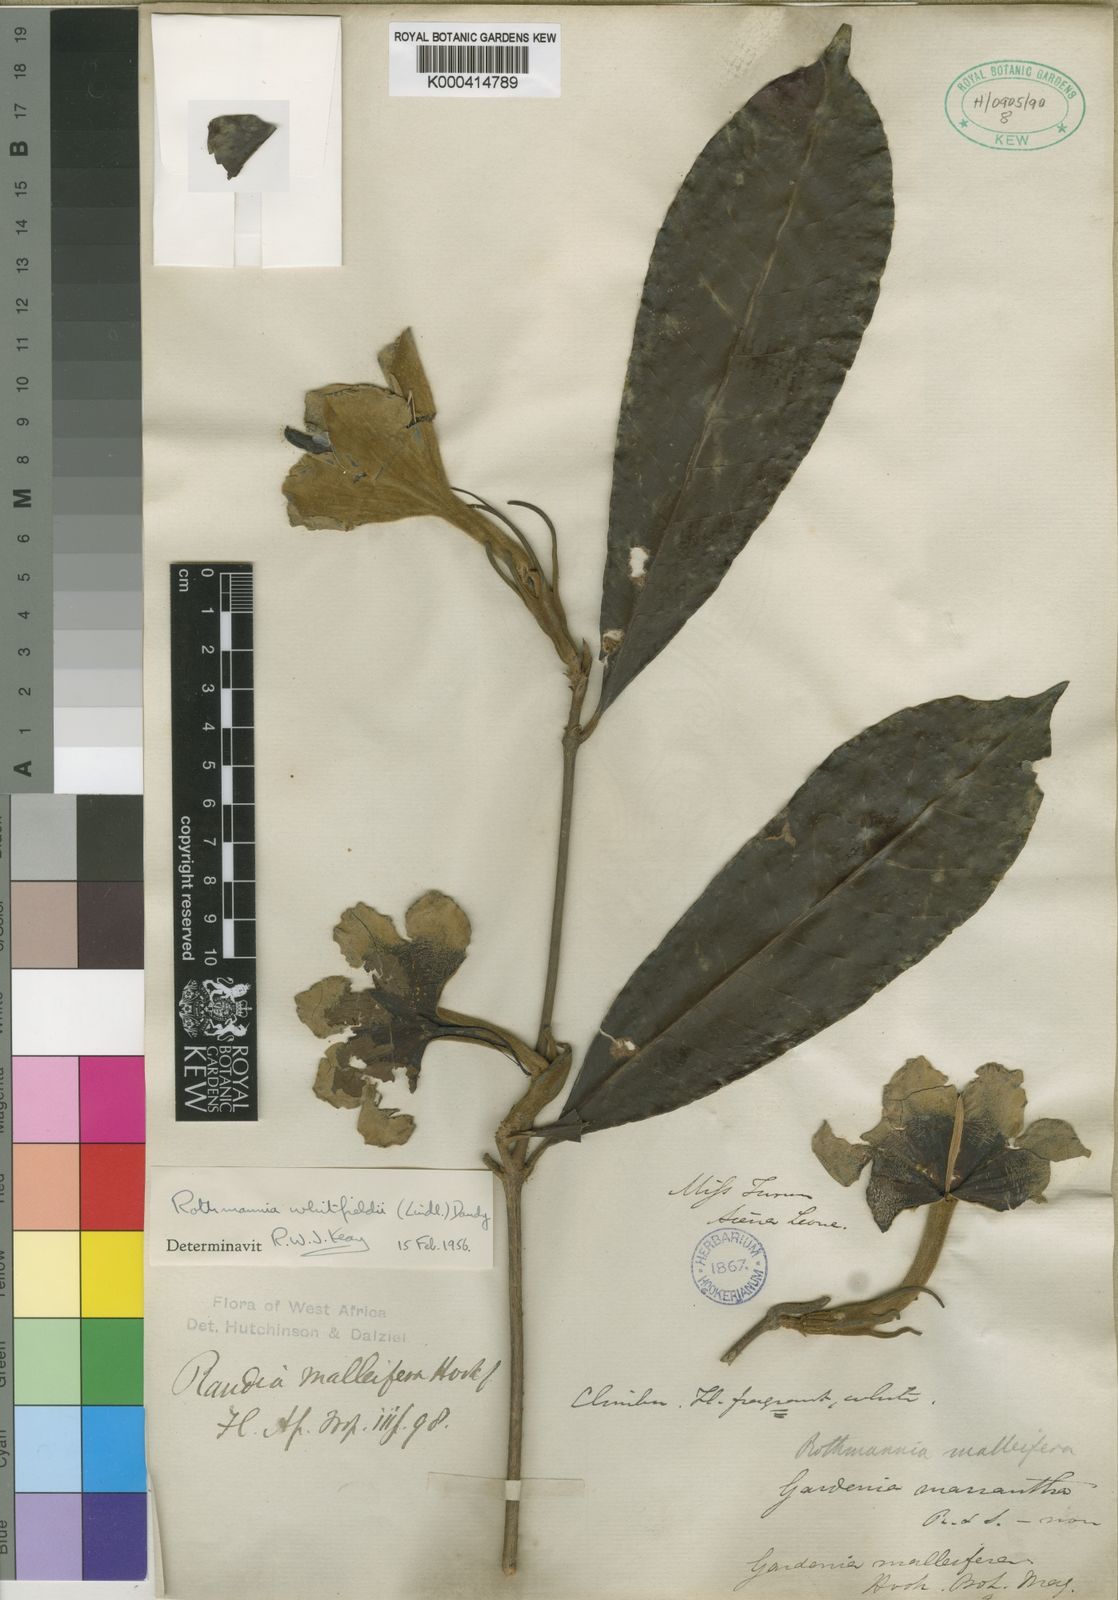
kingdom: Plantae
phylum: Tracheophyta
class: Magnoliopsida
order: Gentianales
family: Rubiaceae
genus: Rothmannia
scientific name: Rothmannia whitfieldii
